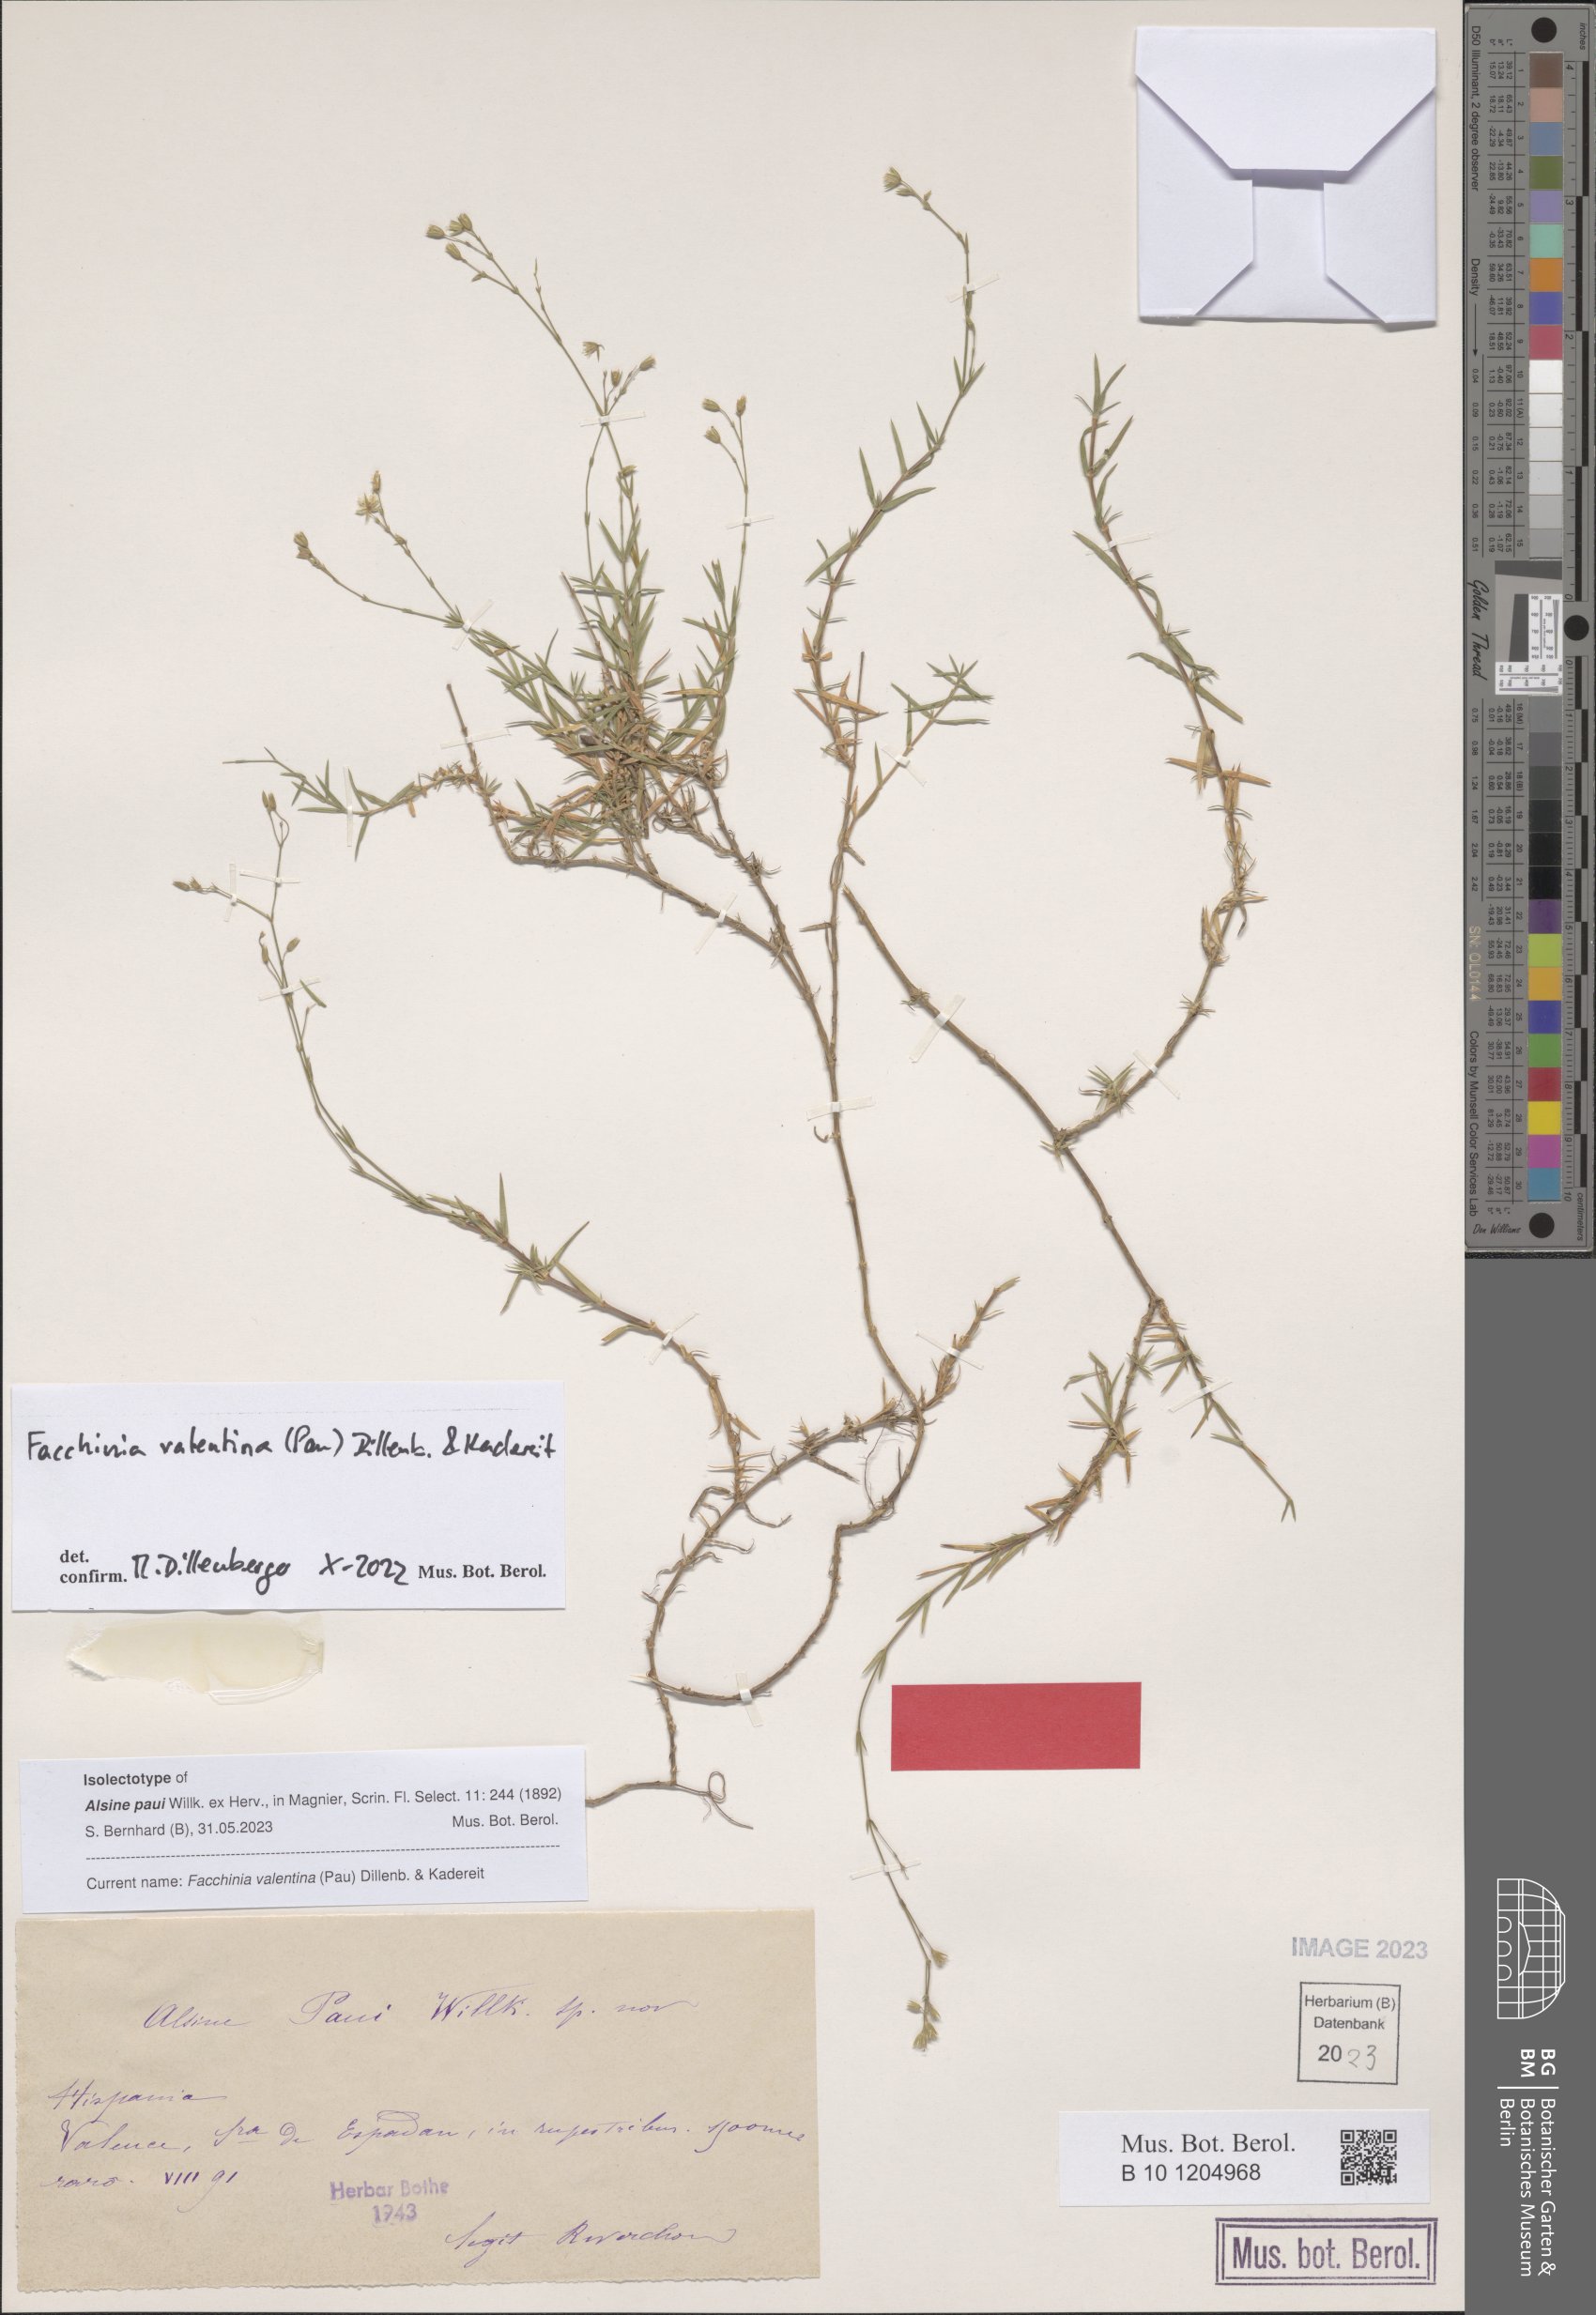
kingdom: Plantae
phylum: Tracheophyta
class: Magnoliopsida
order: Caryophyllales
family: Caryophyllaceae
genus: Facchinia
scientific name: Facchinia valentina
